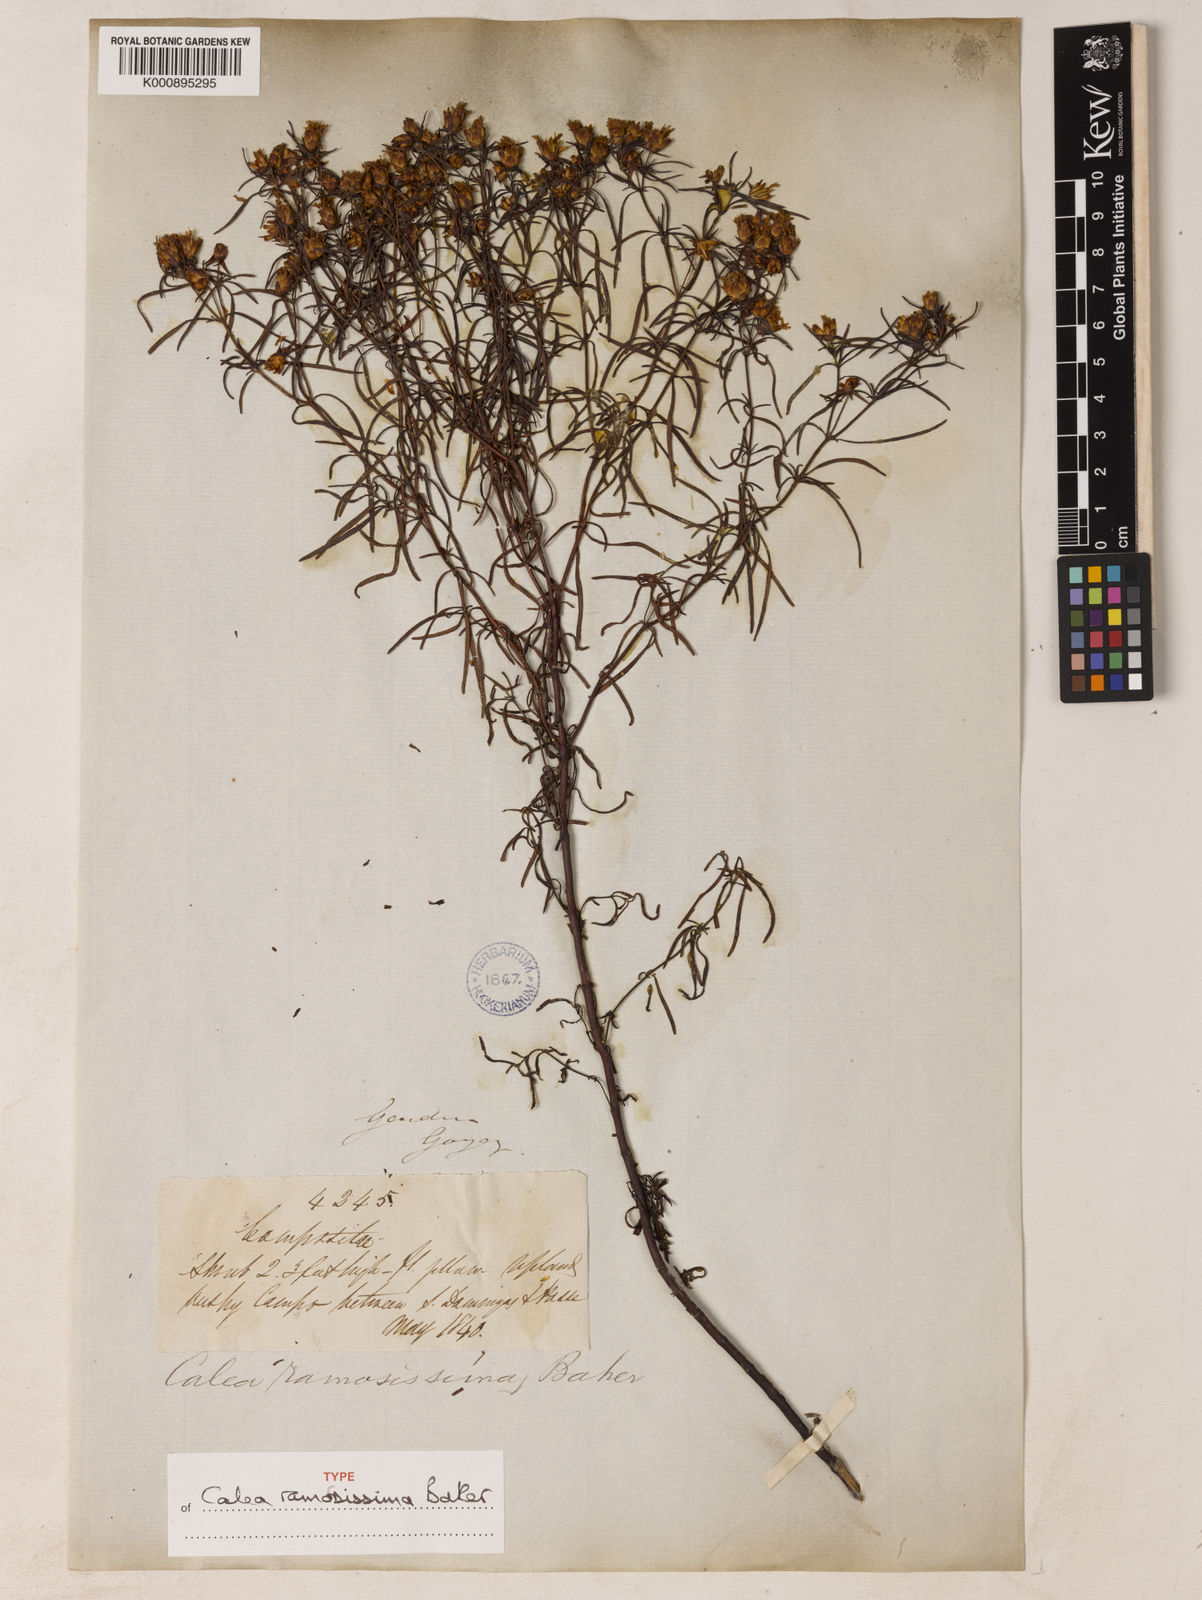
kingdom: Plantae
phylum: Tracheophyta
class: Magnoliopsida
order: Asterales
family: Asteraceae
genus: Calea
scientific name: Calea ramosissima
